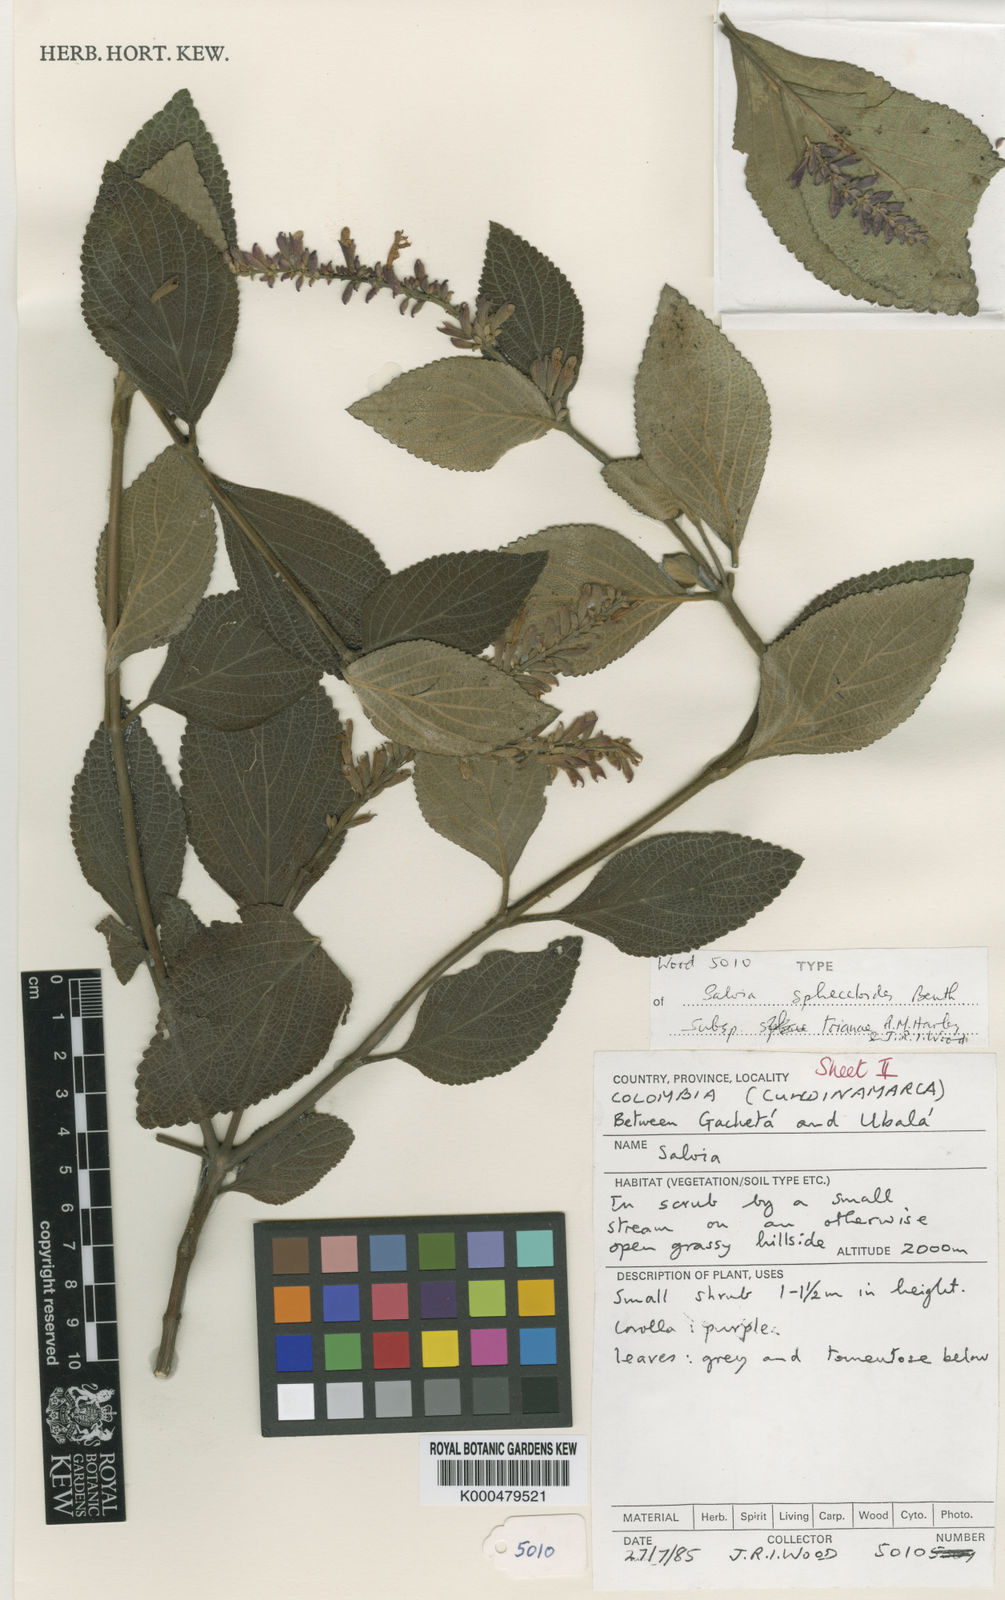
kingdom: Plantae
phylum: Tracheophyta
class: Magnoliopsida
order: Lamiales
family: Lamiaceae
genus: Salvia
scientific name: Salvia sphacelioides
